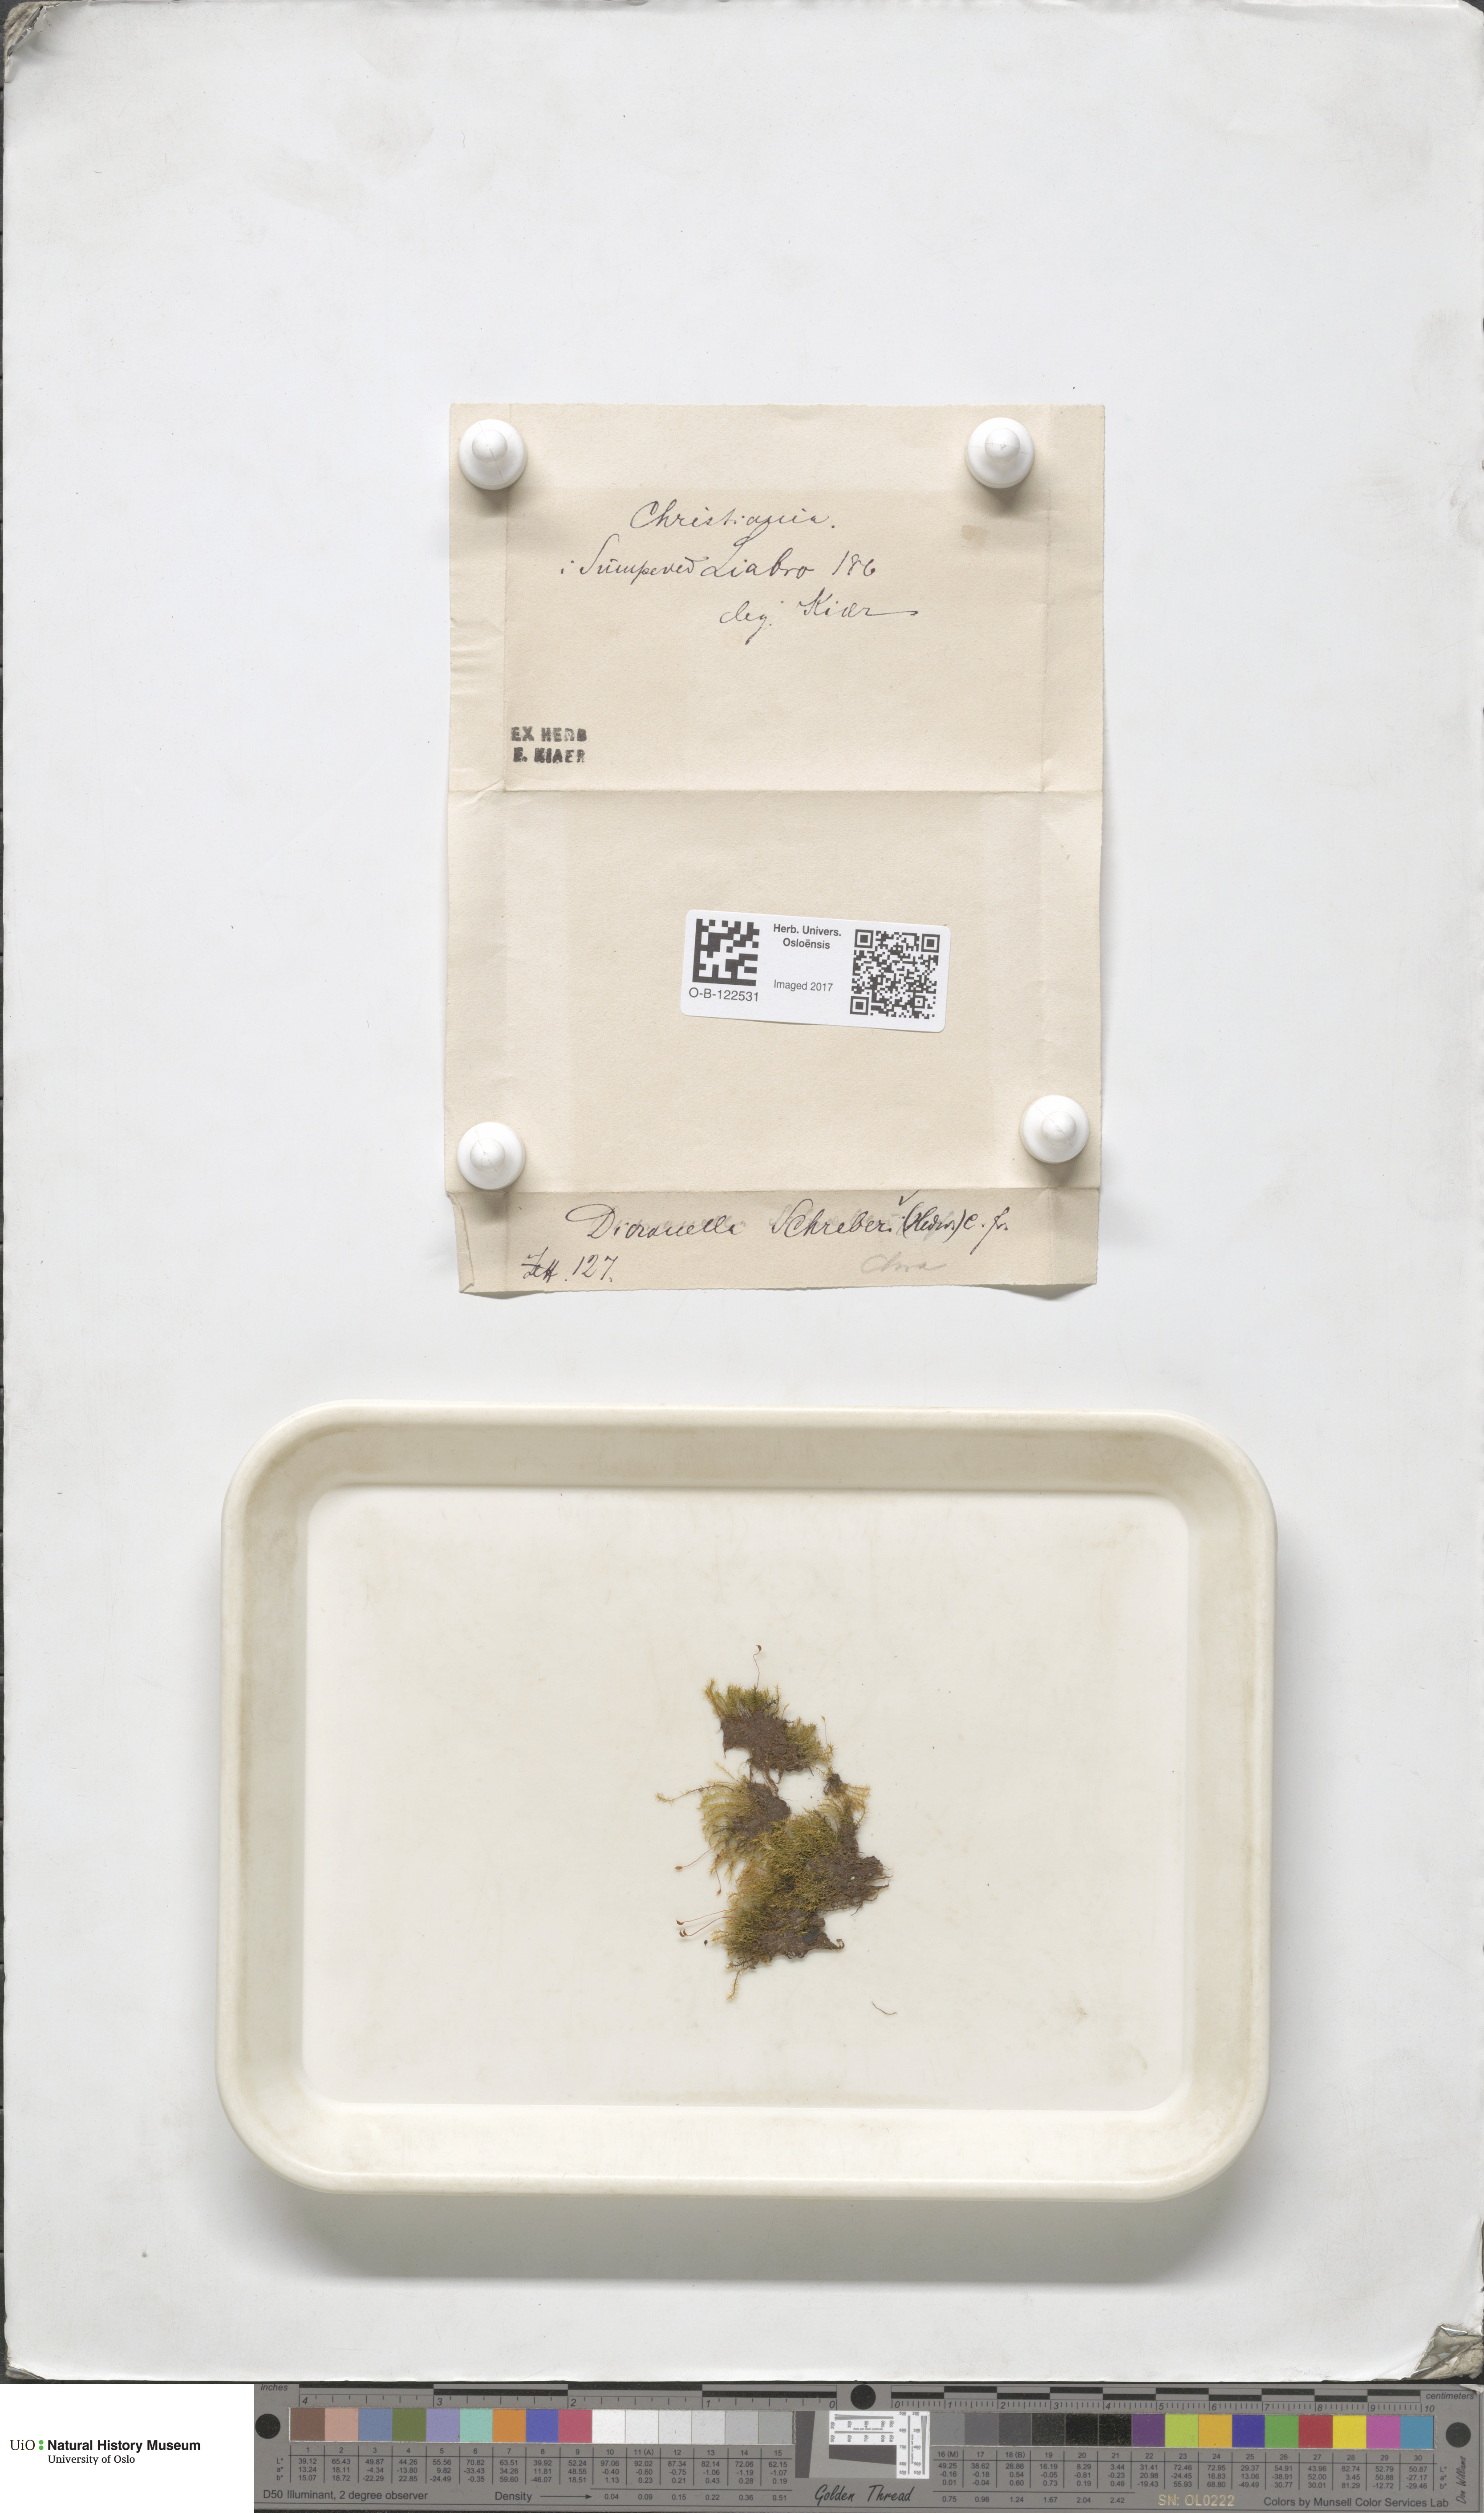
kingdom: Plantae
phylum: Bryophyta
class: Bryopsida
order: Dicranales
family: Dicranellaceae
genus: Dicranella
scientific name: Dicranella schreberiana
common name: Schreber's forklet moss
